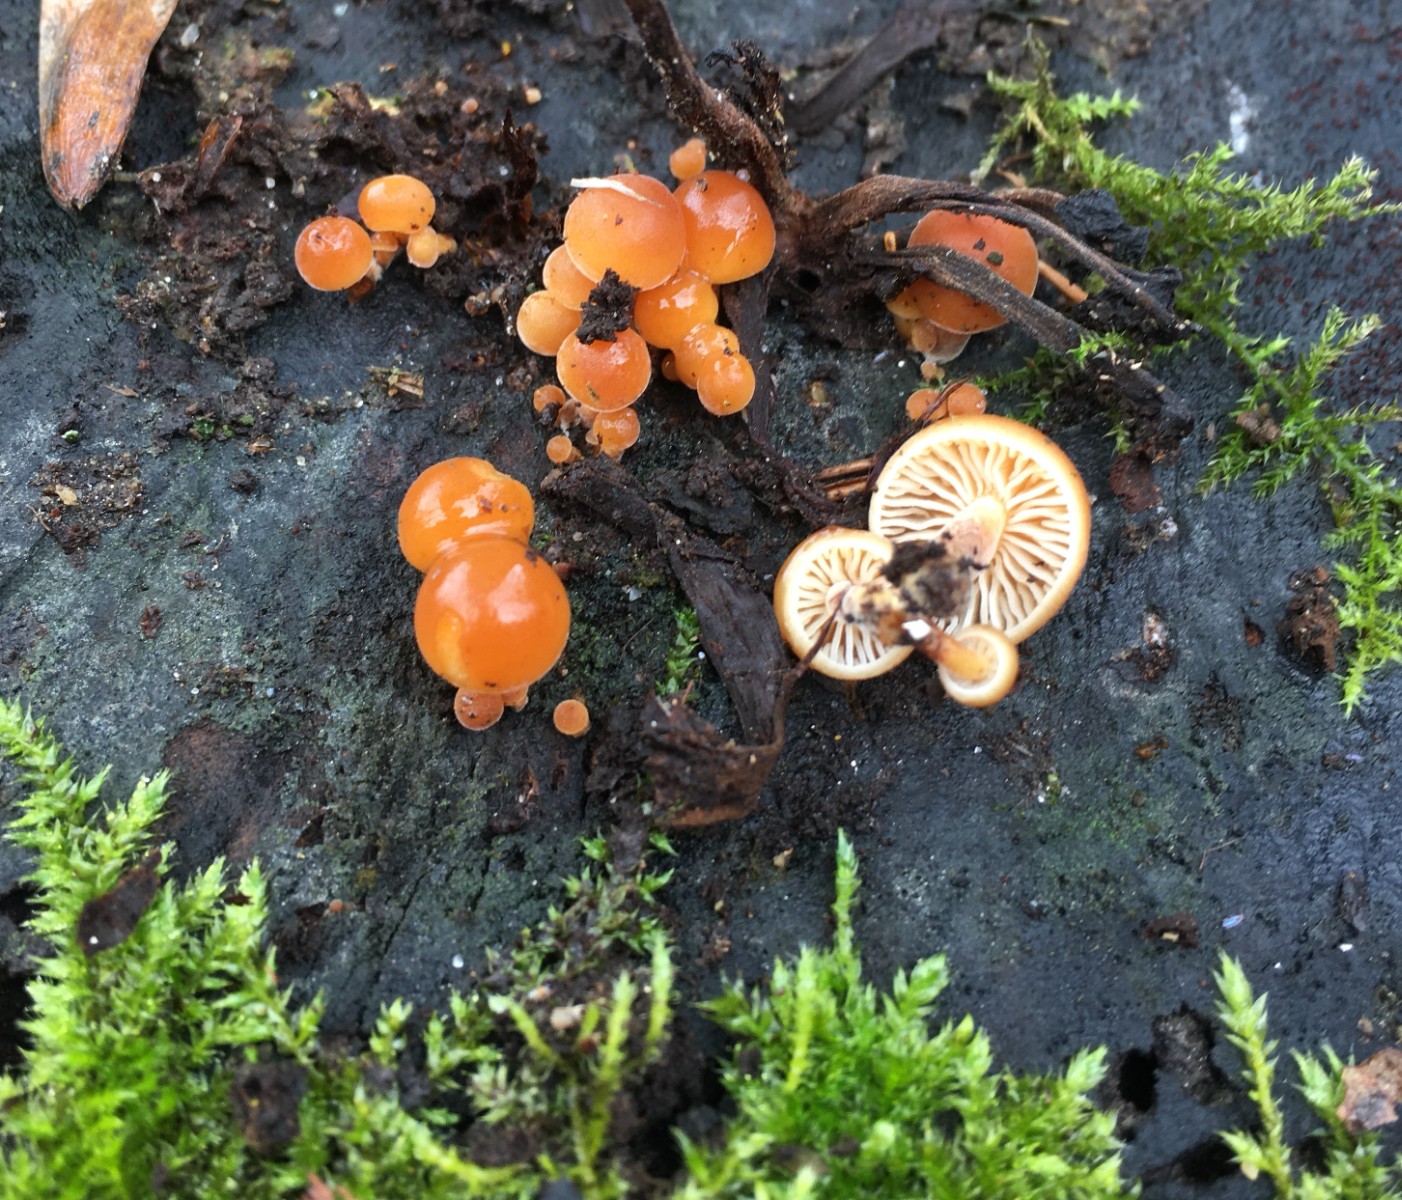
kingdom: Fungi
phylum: Basidiomycota
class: Agaricomycetes
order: Agaricales
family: Physalacriaceae
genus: Flammulina
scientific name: Flammulina velutipes
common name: gul fløjlsfod
